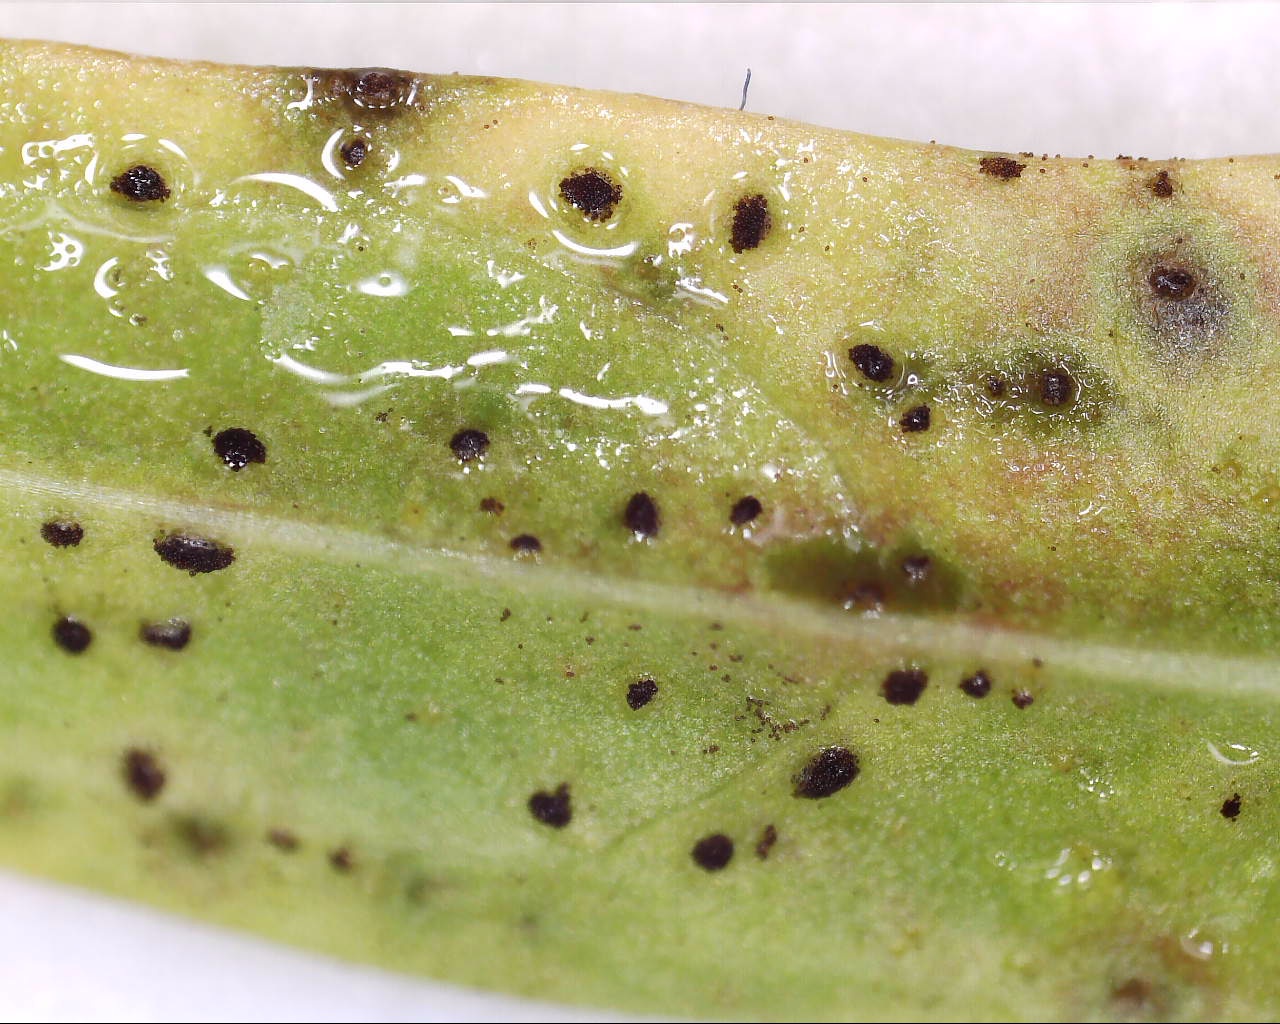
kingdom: Fungi
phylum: Basidiomycota
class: Pucciniomycetes
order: Pucciniales
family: Pucciniaceae
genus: Puccinia
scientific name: Puccinia hieracii
